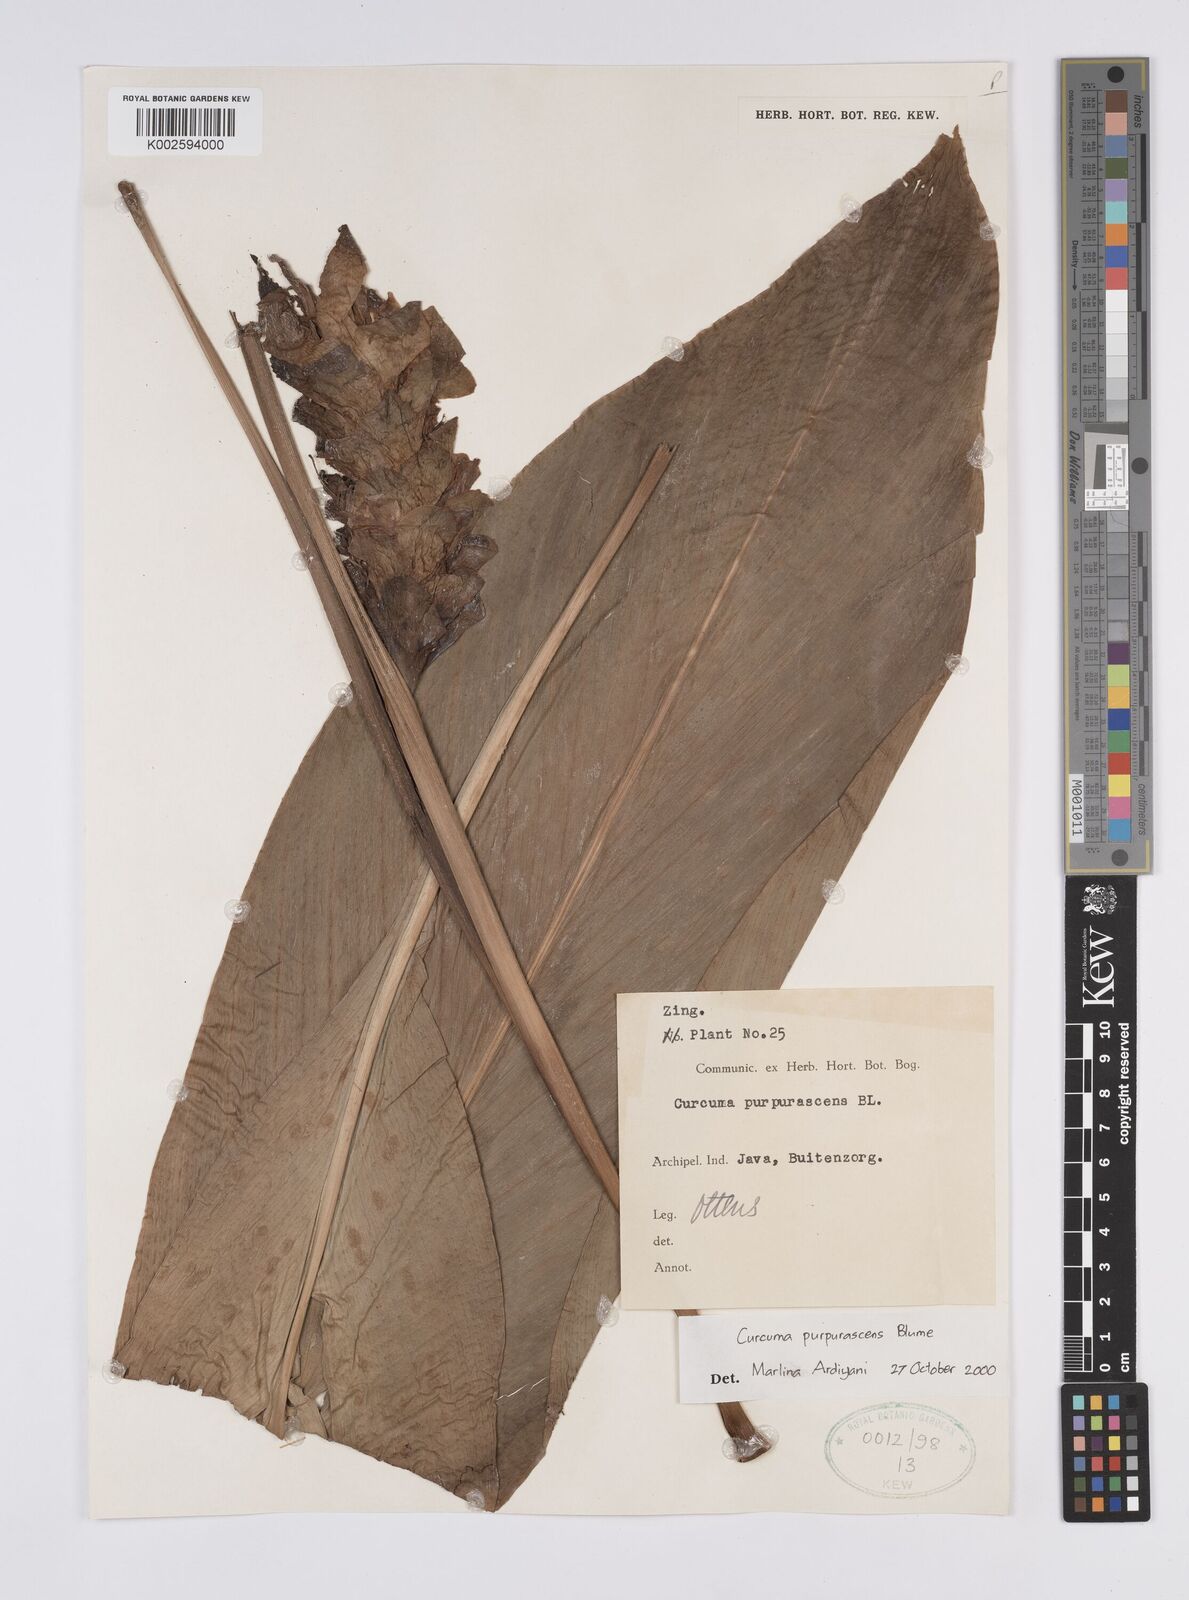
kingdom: Plantae
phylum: Tracheophyta
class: Liliopsida
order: Zingiberales
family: Zingiberaceae
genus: Curcuma
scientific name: Curcuma purpurascens
